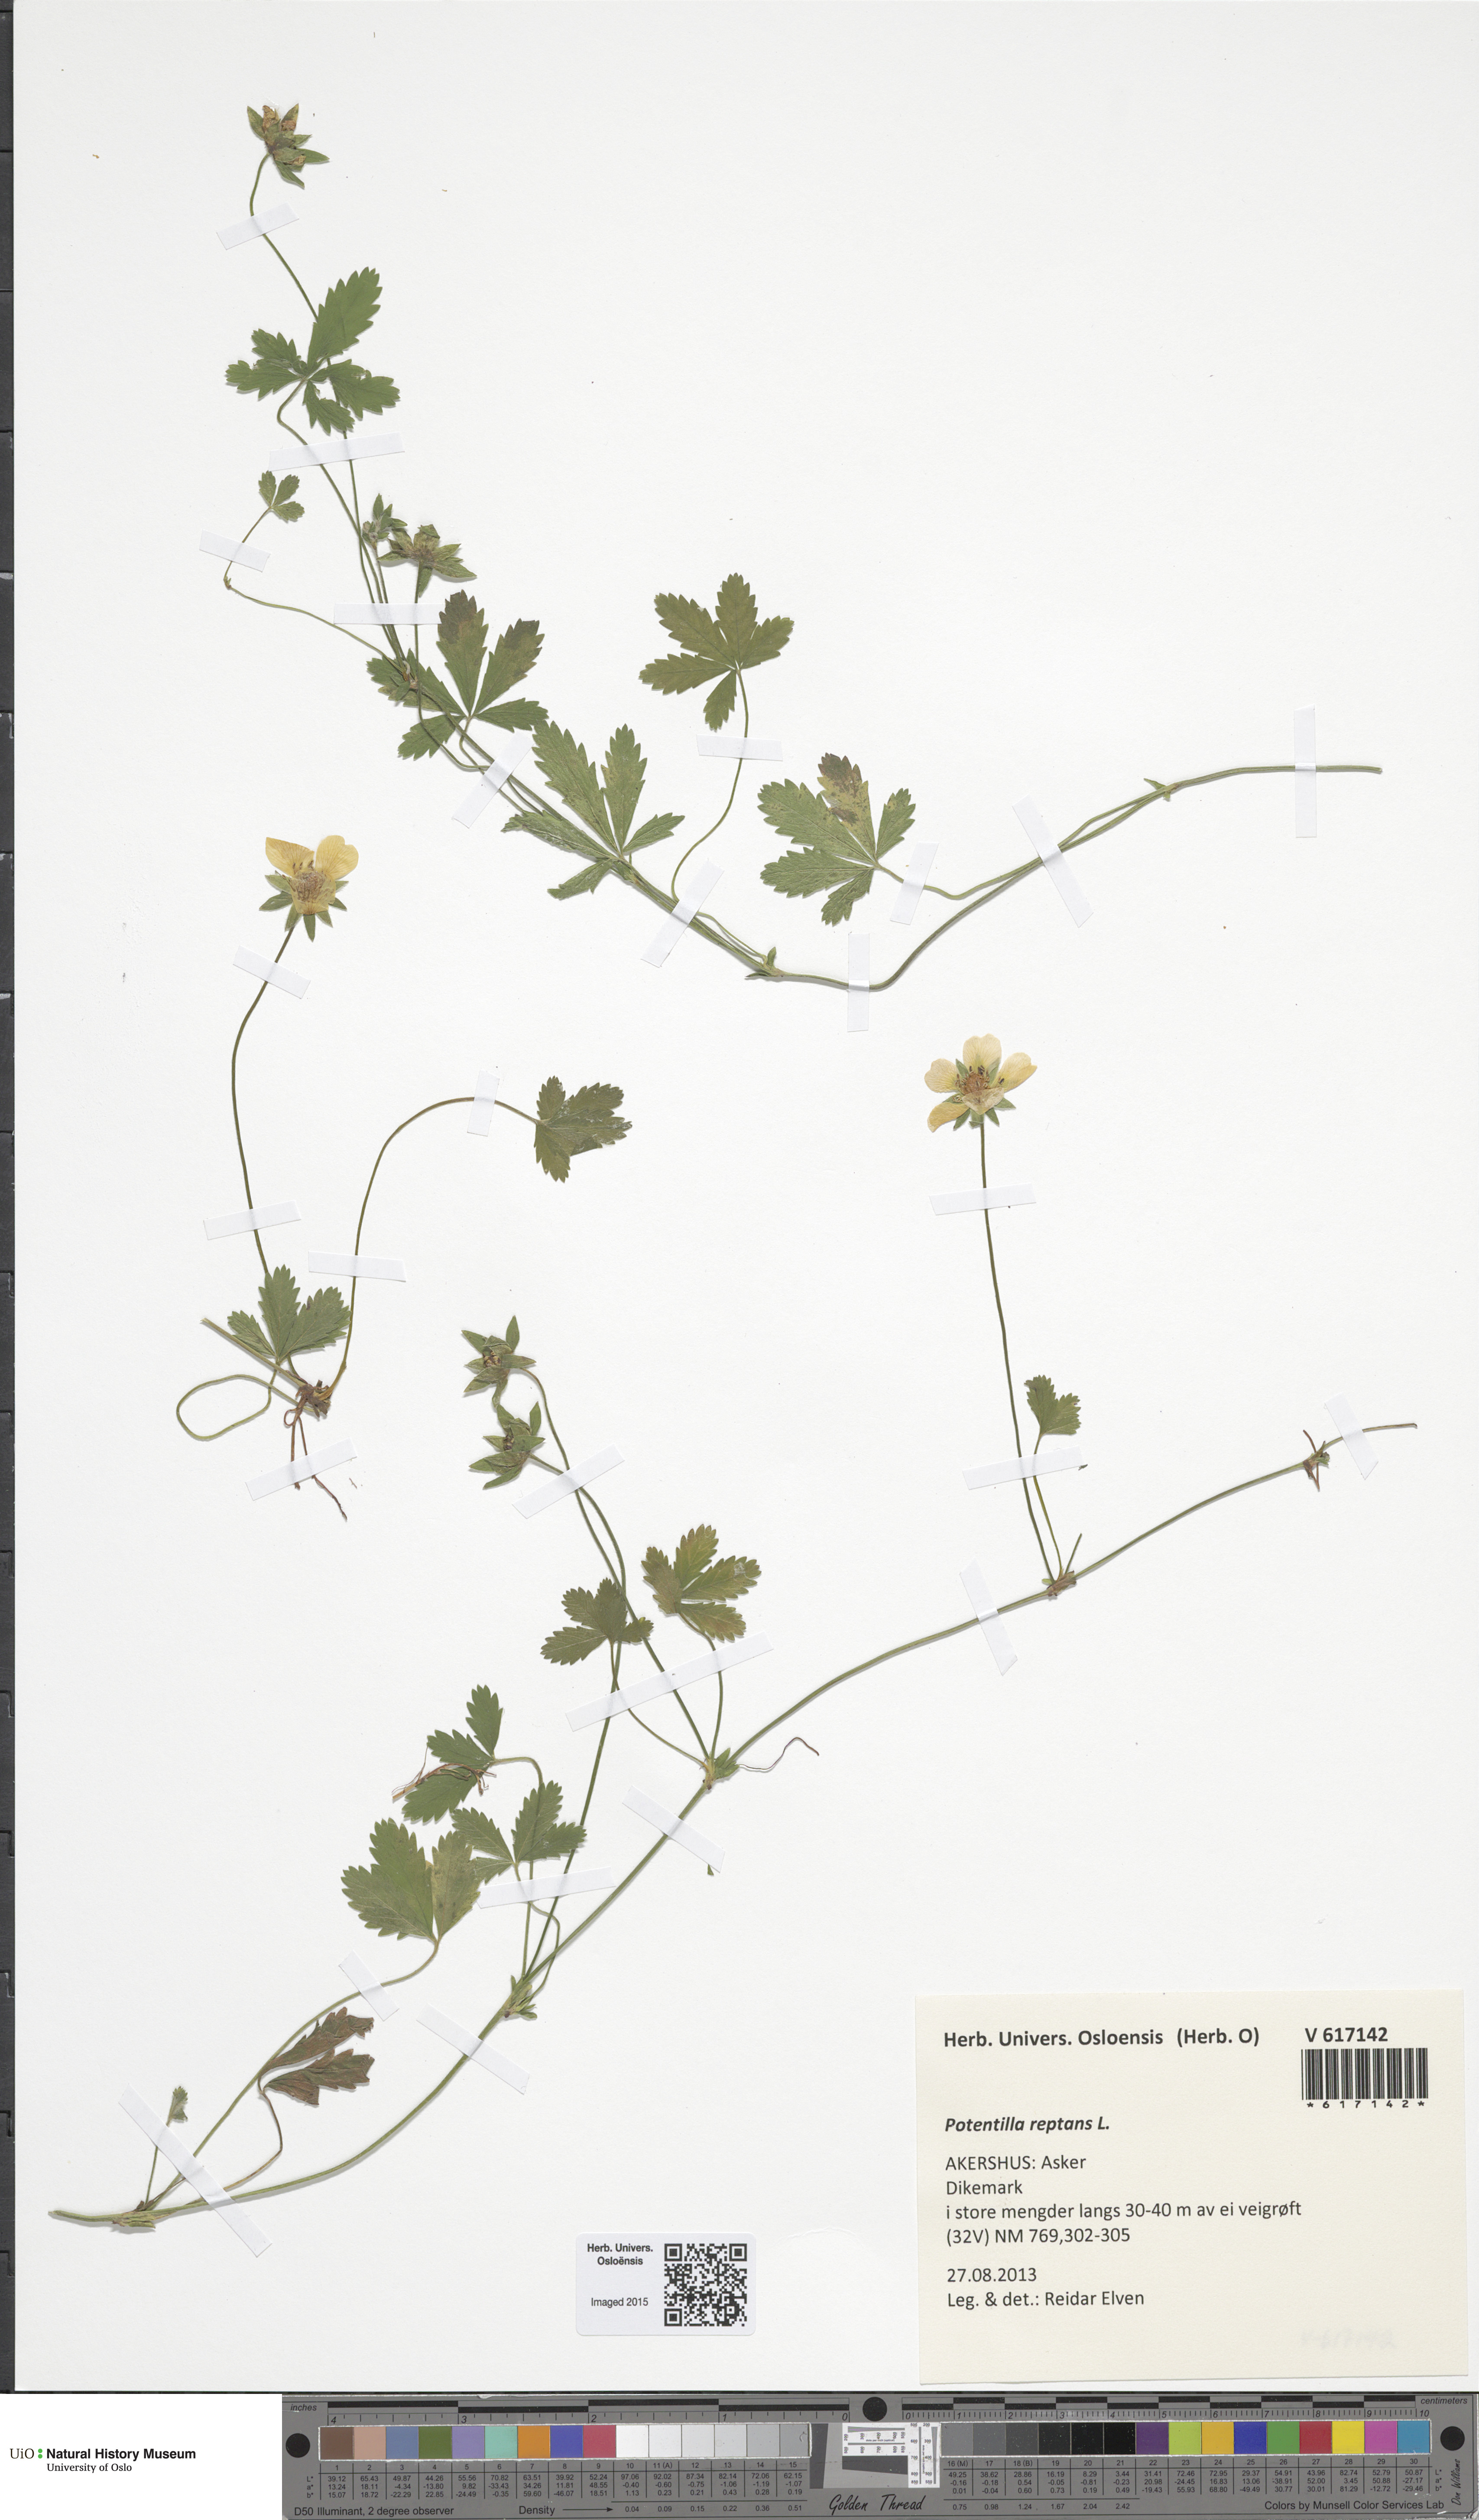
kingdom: Plantae
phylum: Tracheophyta
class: Magnoliopsida
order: Rosales
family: Rosaceae
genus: Potentilla
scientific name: Potentilla reptans
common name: Creeping cinquefoil
